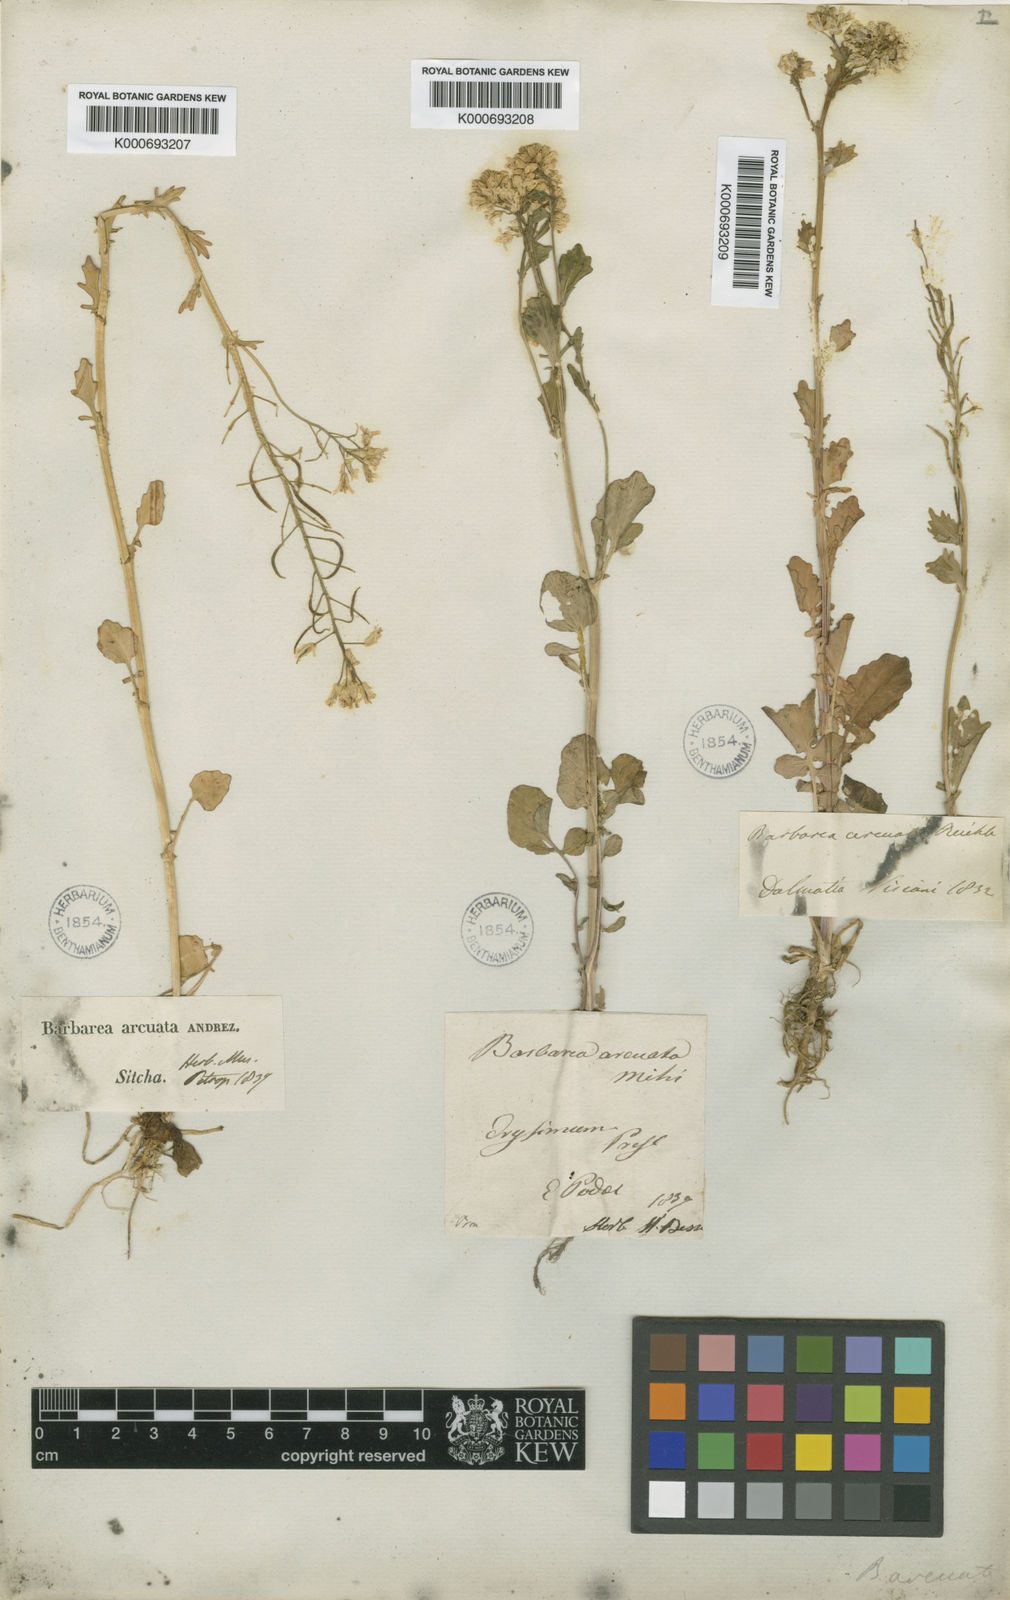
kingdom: Plantae
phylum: Tracheophyta
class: Magnoliopsida
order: Brassicales
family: Brassicaceae
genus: Barbarea
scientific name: Barbarea vulgaris
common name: Cressy-greens
